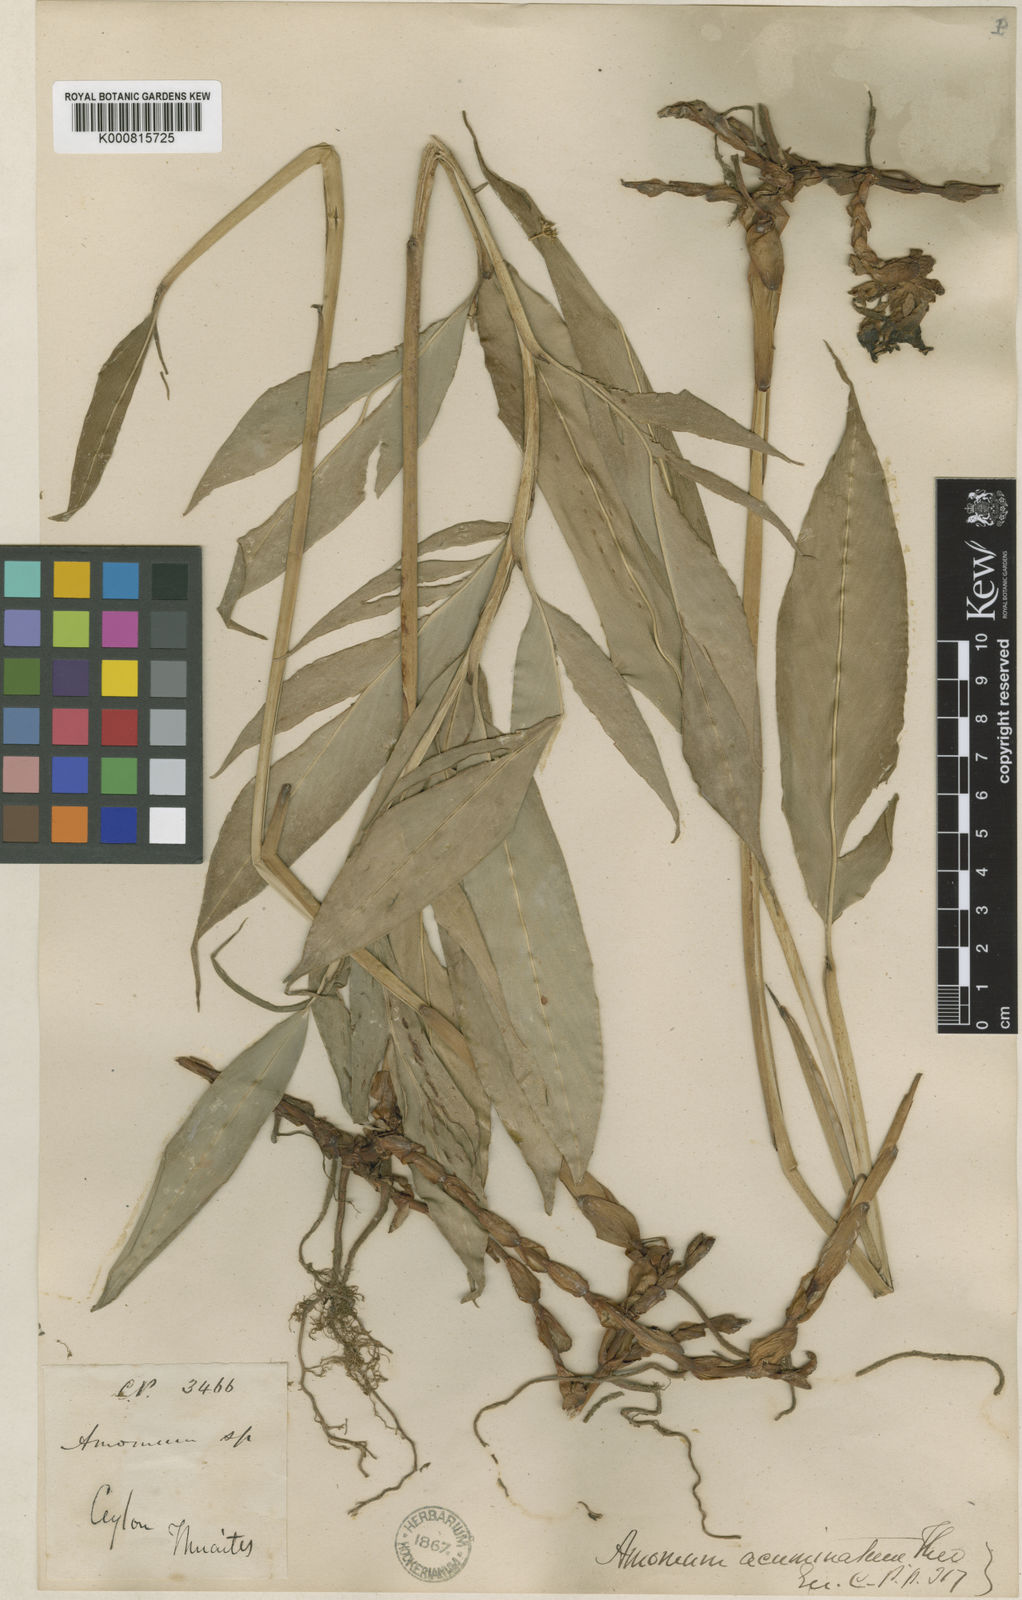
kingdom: Plantae
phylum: Tracheophyta
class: Liliopsida
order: Zingiberales
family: Zingiberaceae
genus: Meistera
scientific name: Meistera acuminata
